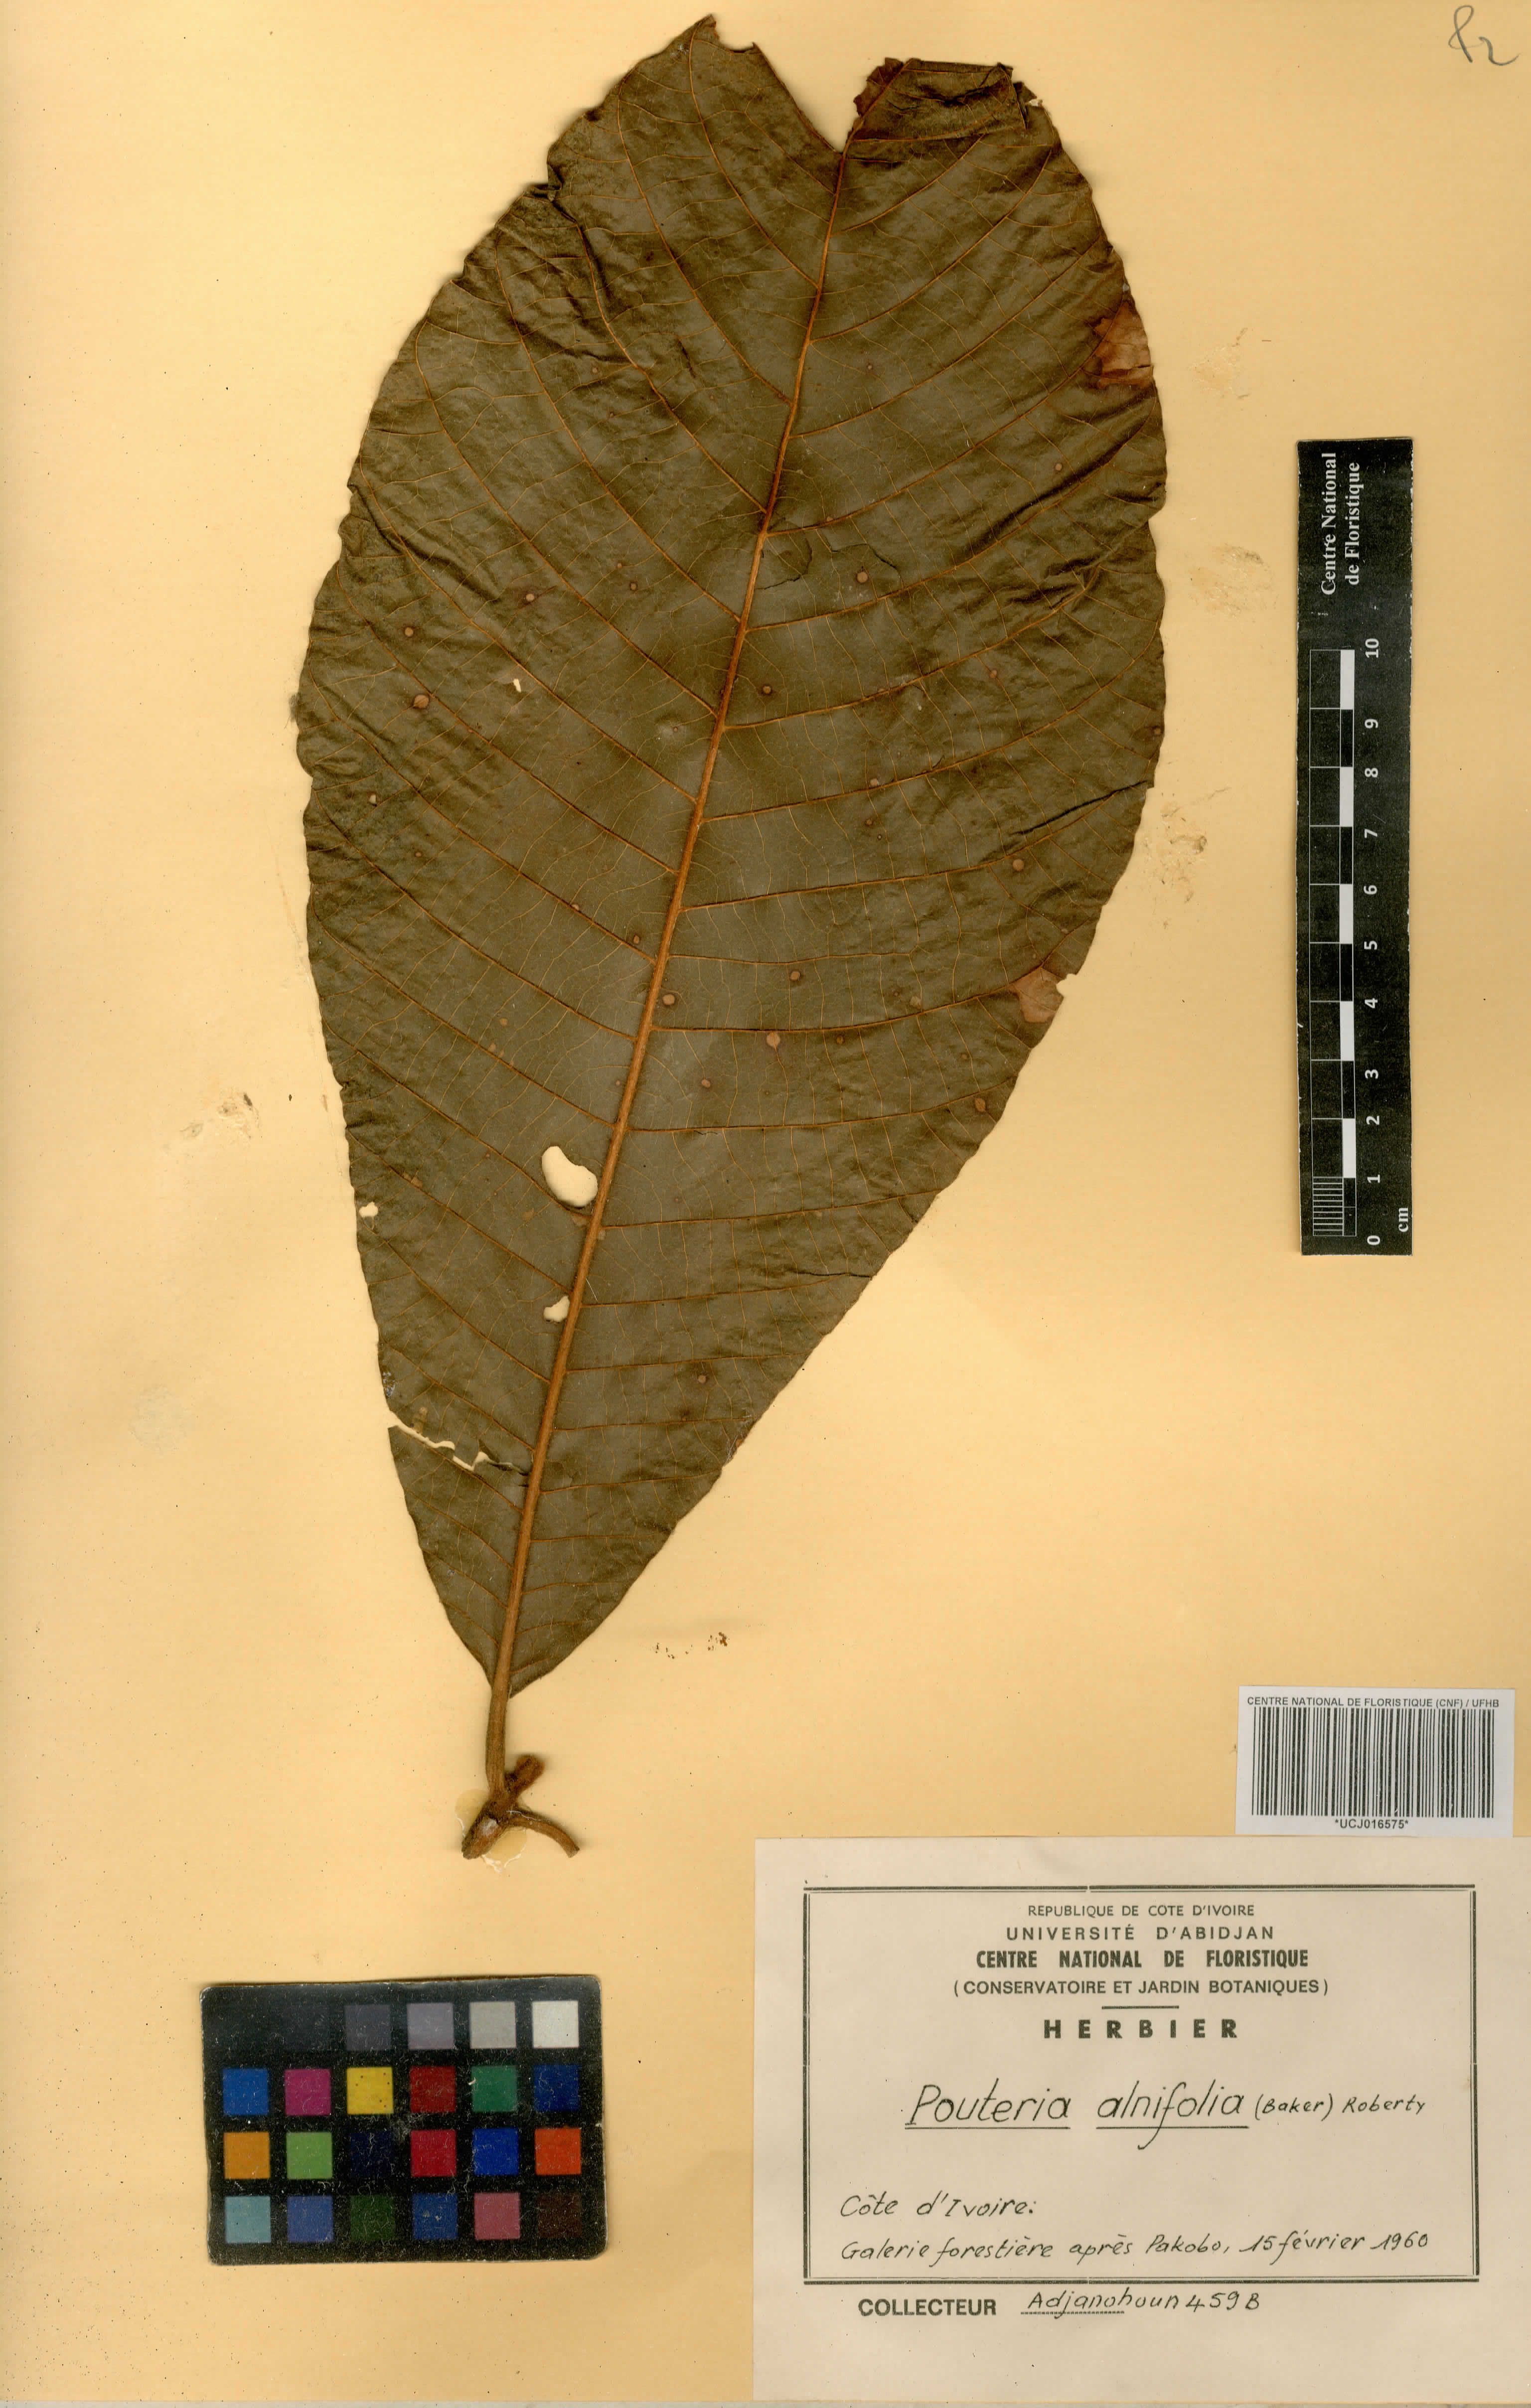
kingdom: Plantae
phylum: Tracheophyta
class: Magnoliopsida
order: Ericales
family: Sapotaceae
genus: Malacantha
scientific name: Malacantha alnifolia
